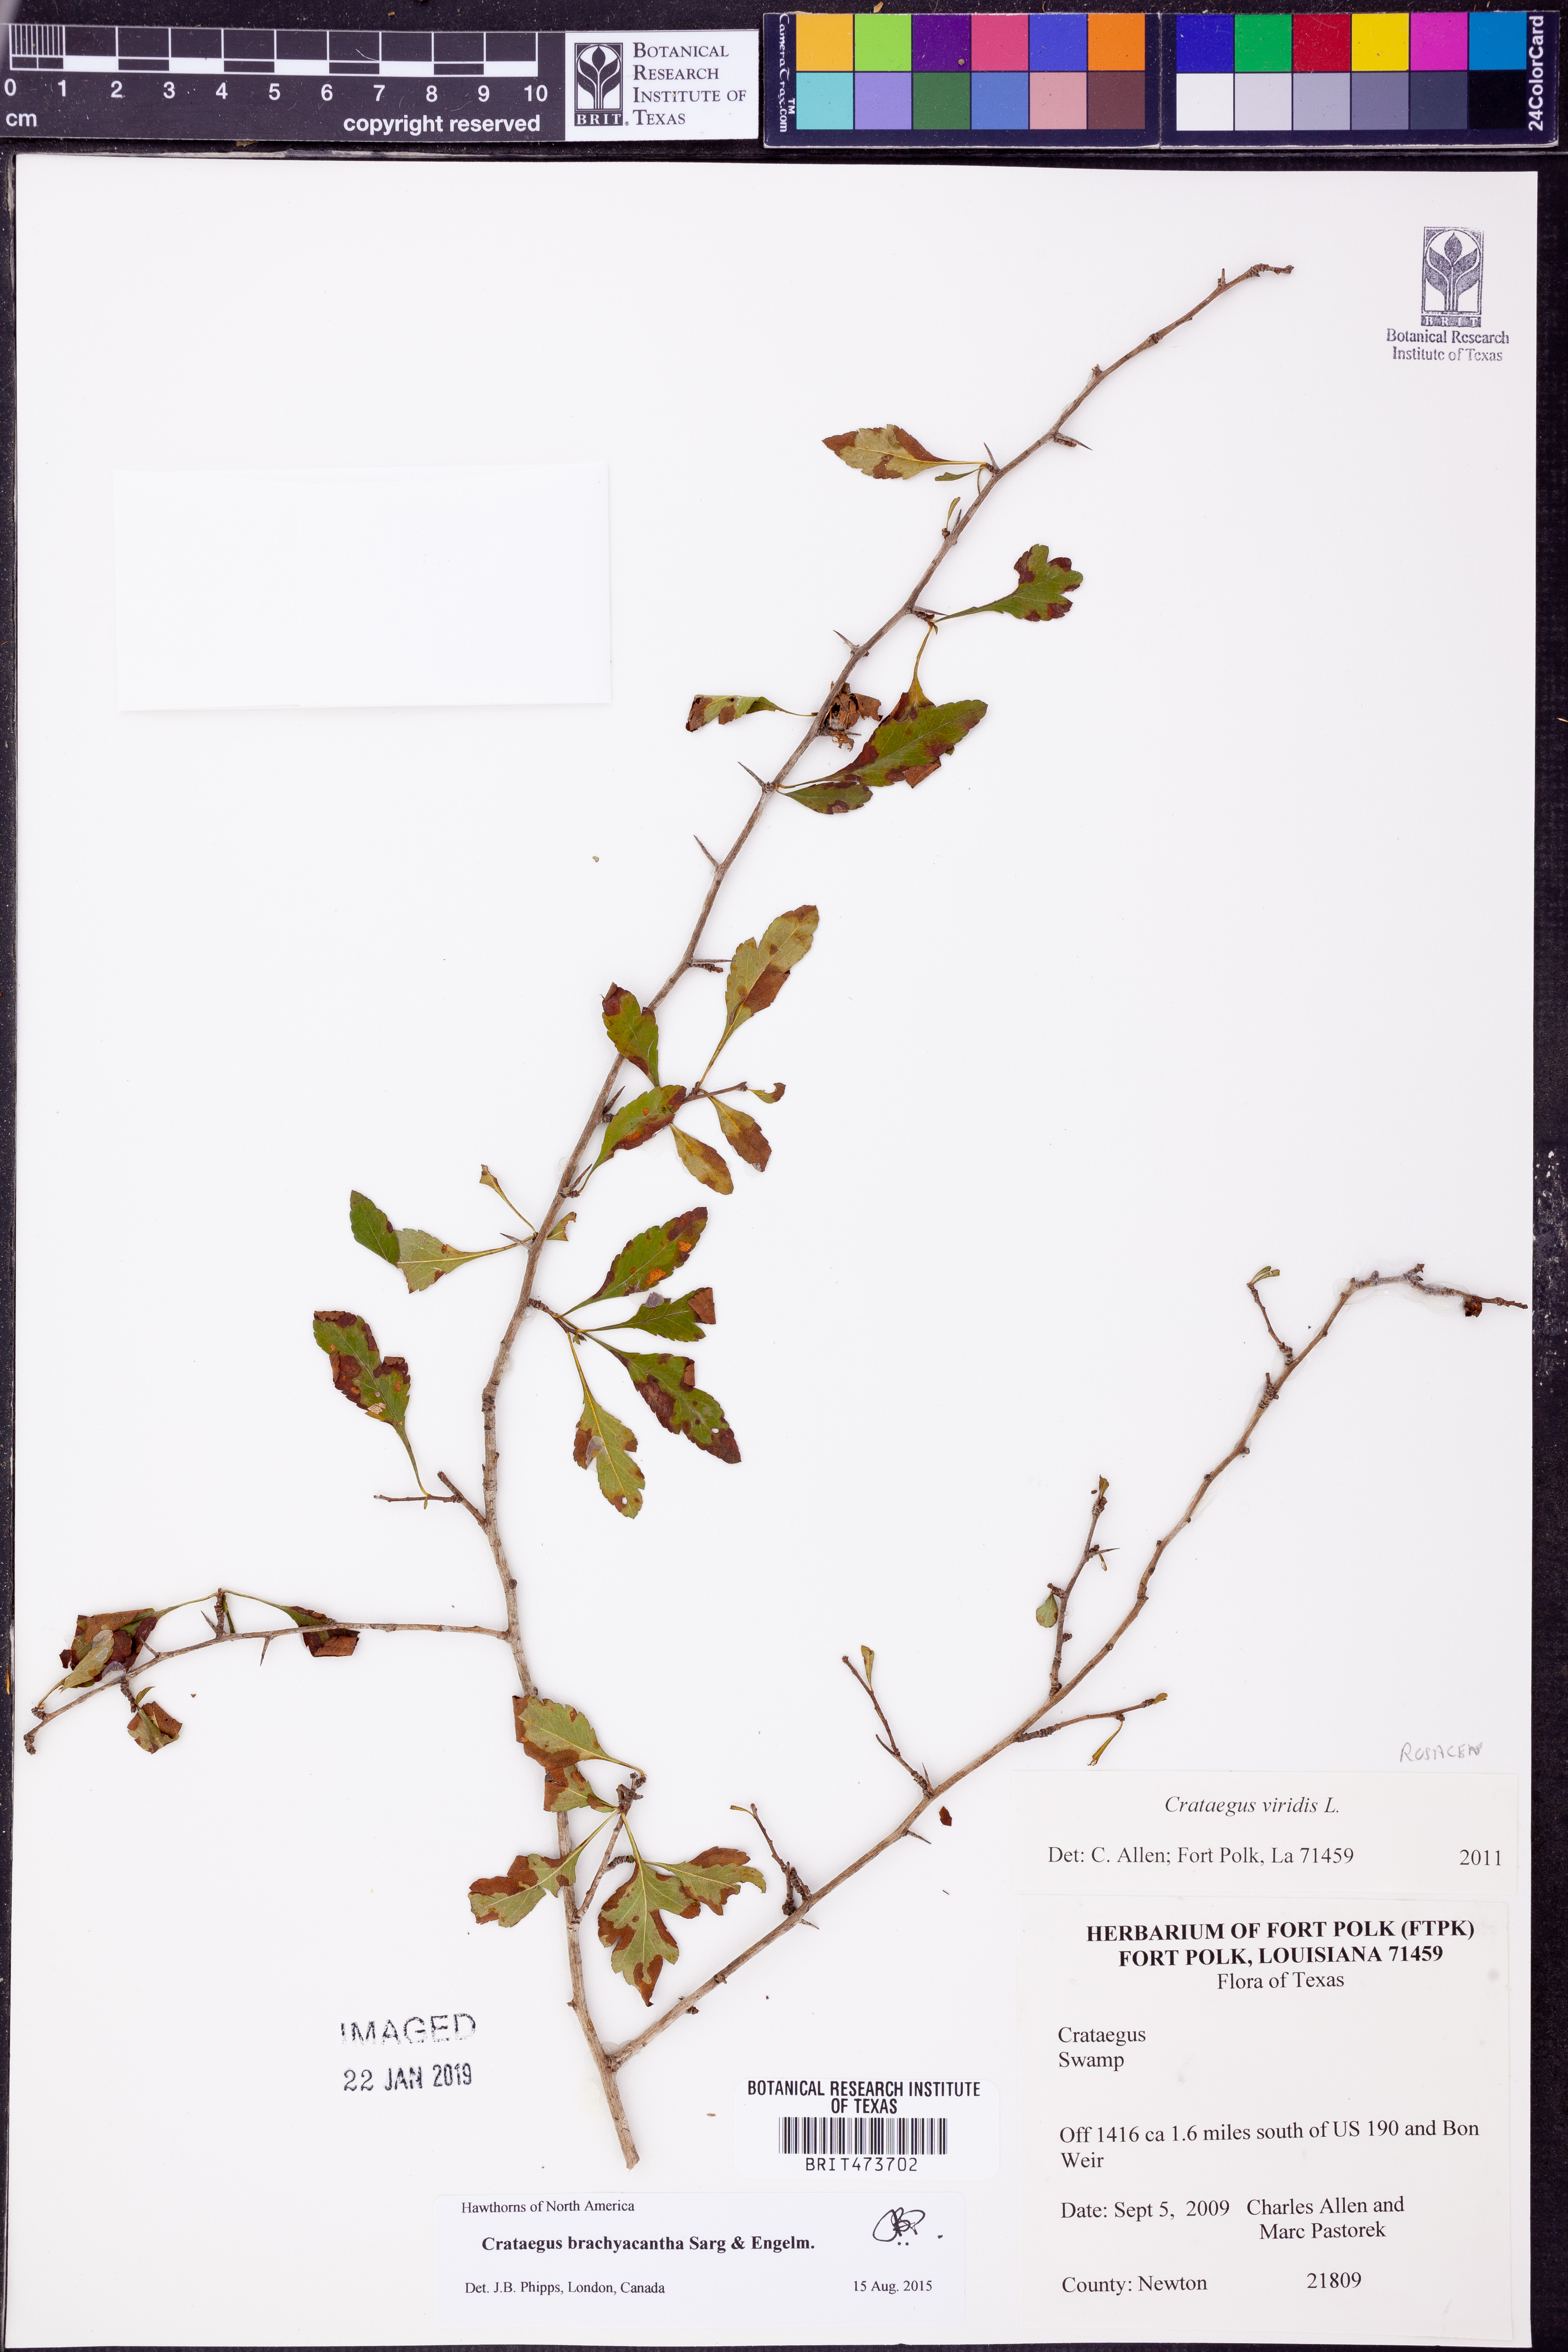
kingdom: Plantae
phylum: Tracheophyta
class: Magnoliopsida
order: Rosales
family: Rosaceae
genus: Crataegus
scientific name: Crataegus brachyacantha
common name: Blueberry-hawthorn
